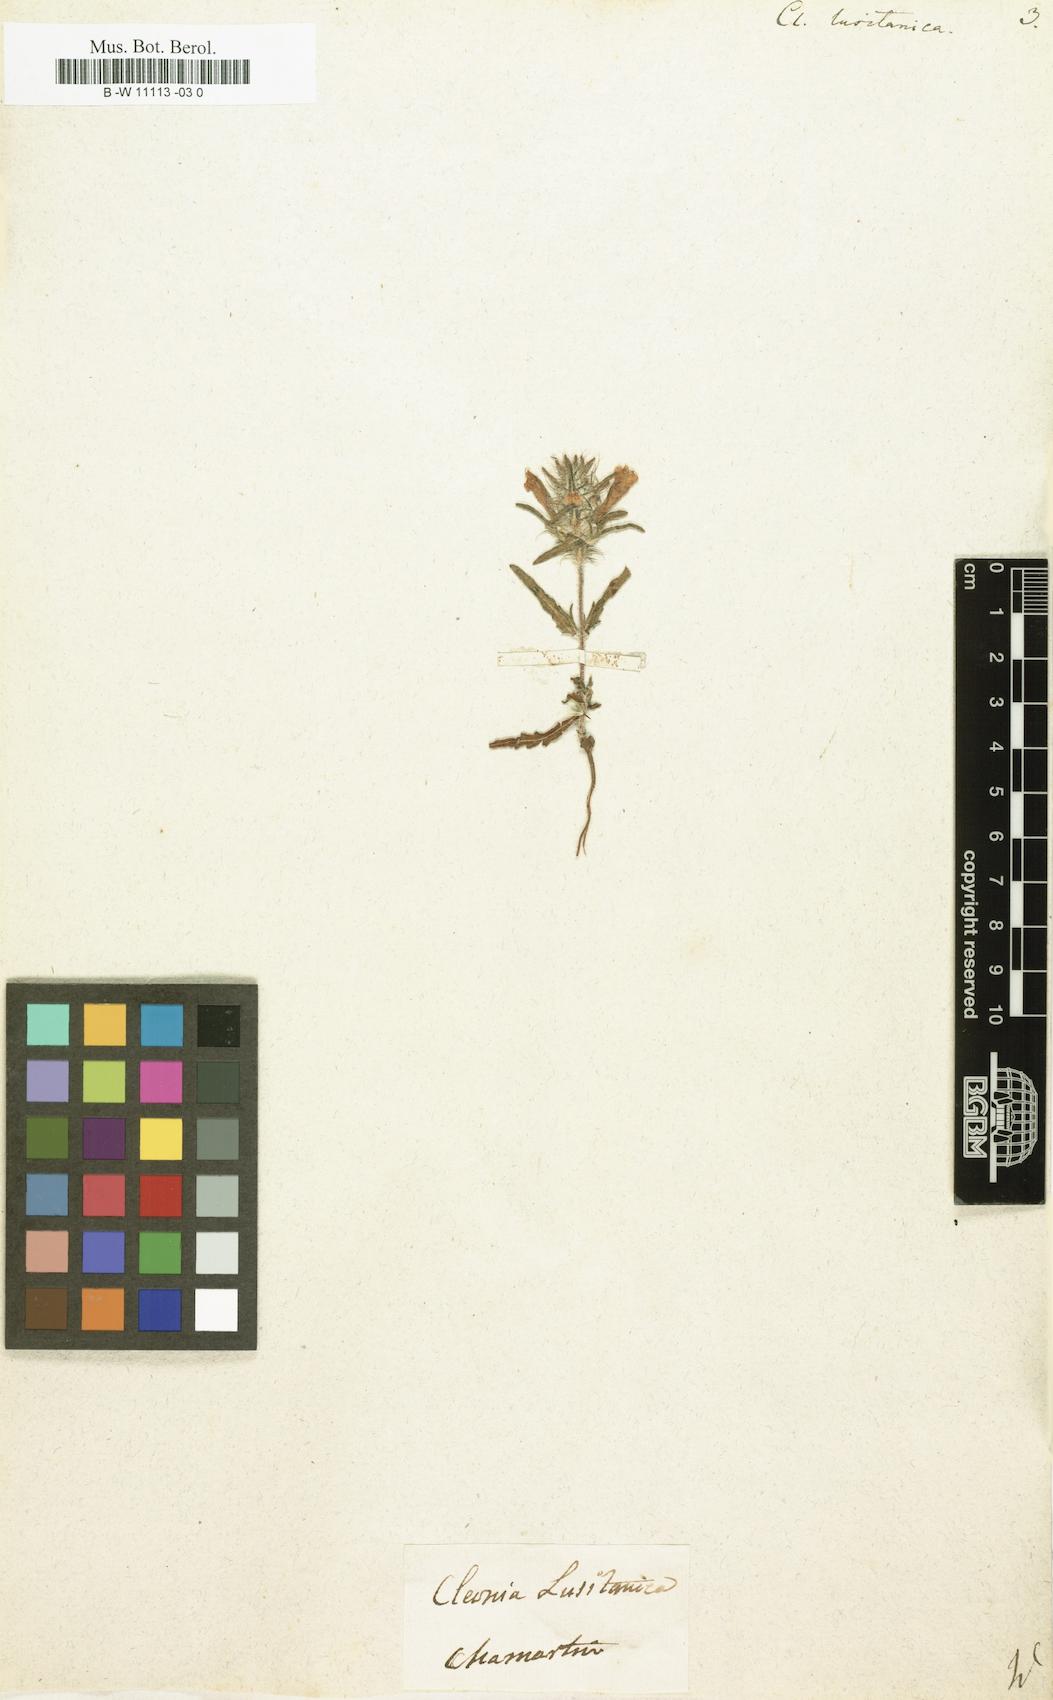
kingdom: Plantae
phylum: Tracheophyta
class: Magnoliopsida
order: Lamiales
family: Lamiaceae
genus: Cleonia
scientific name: Cleonia lusitanica
